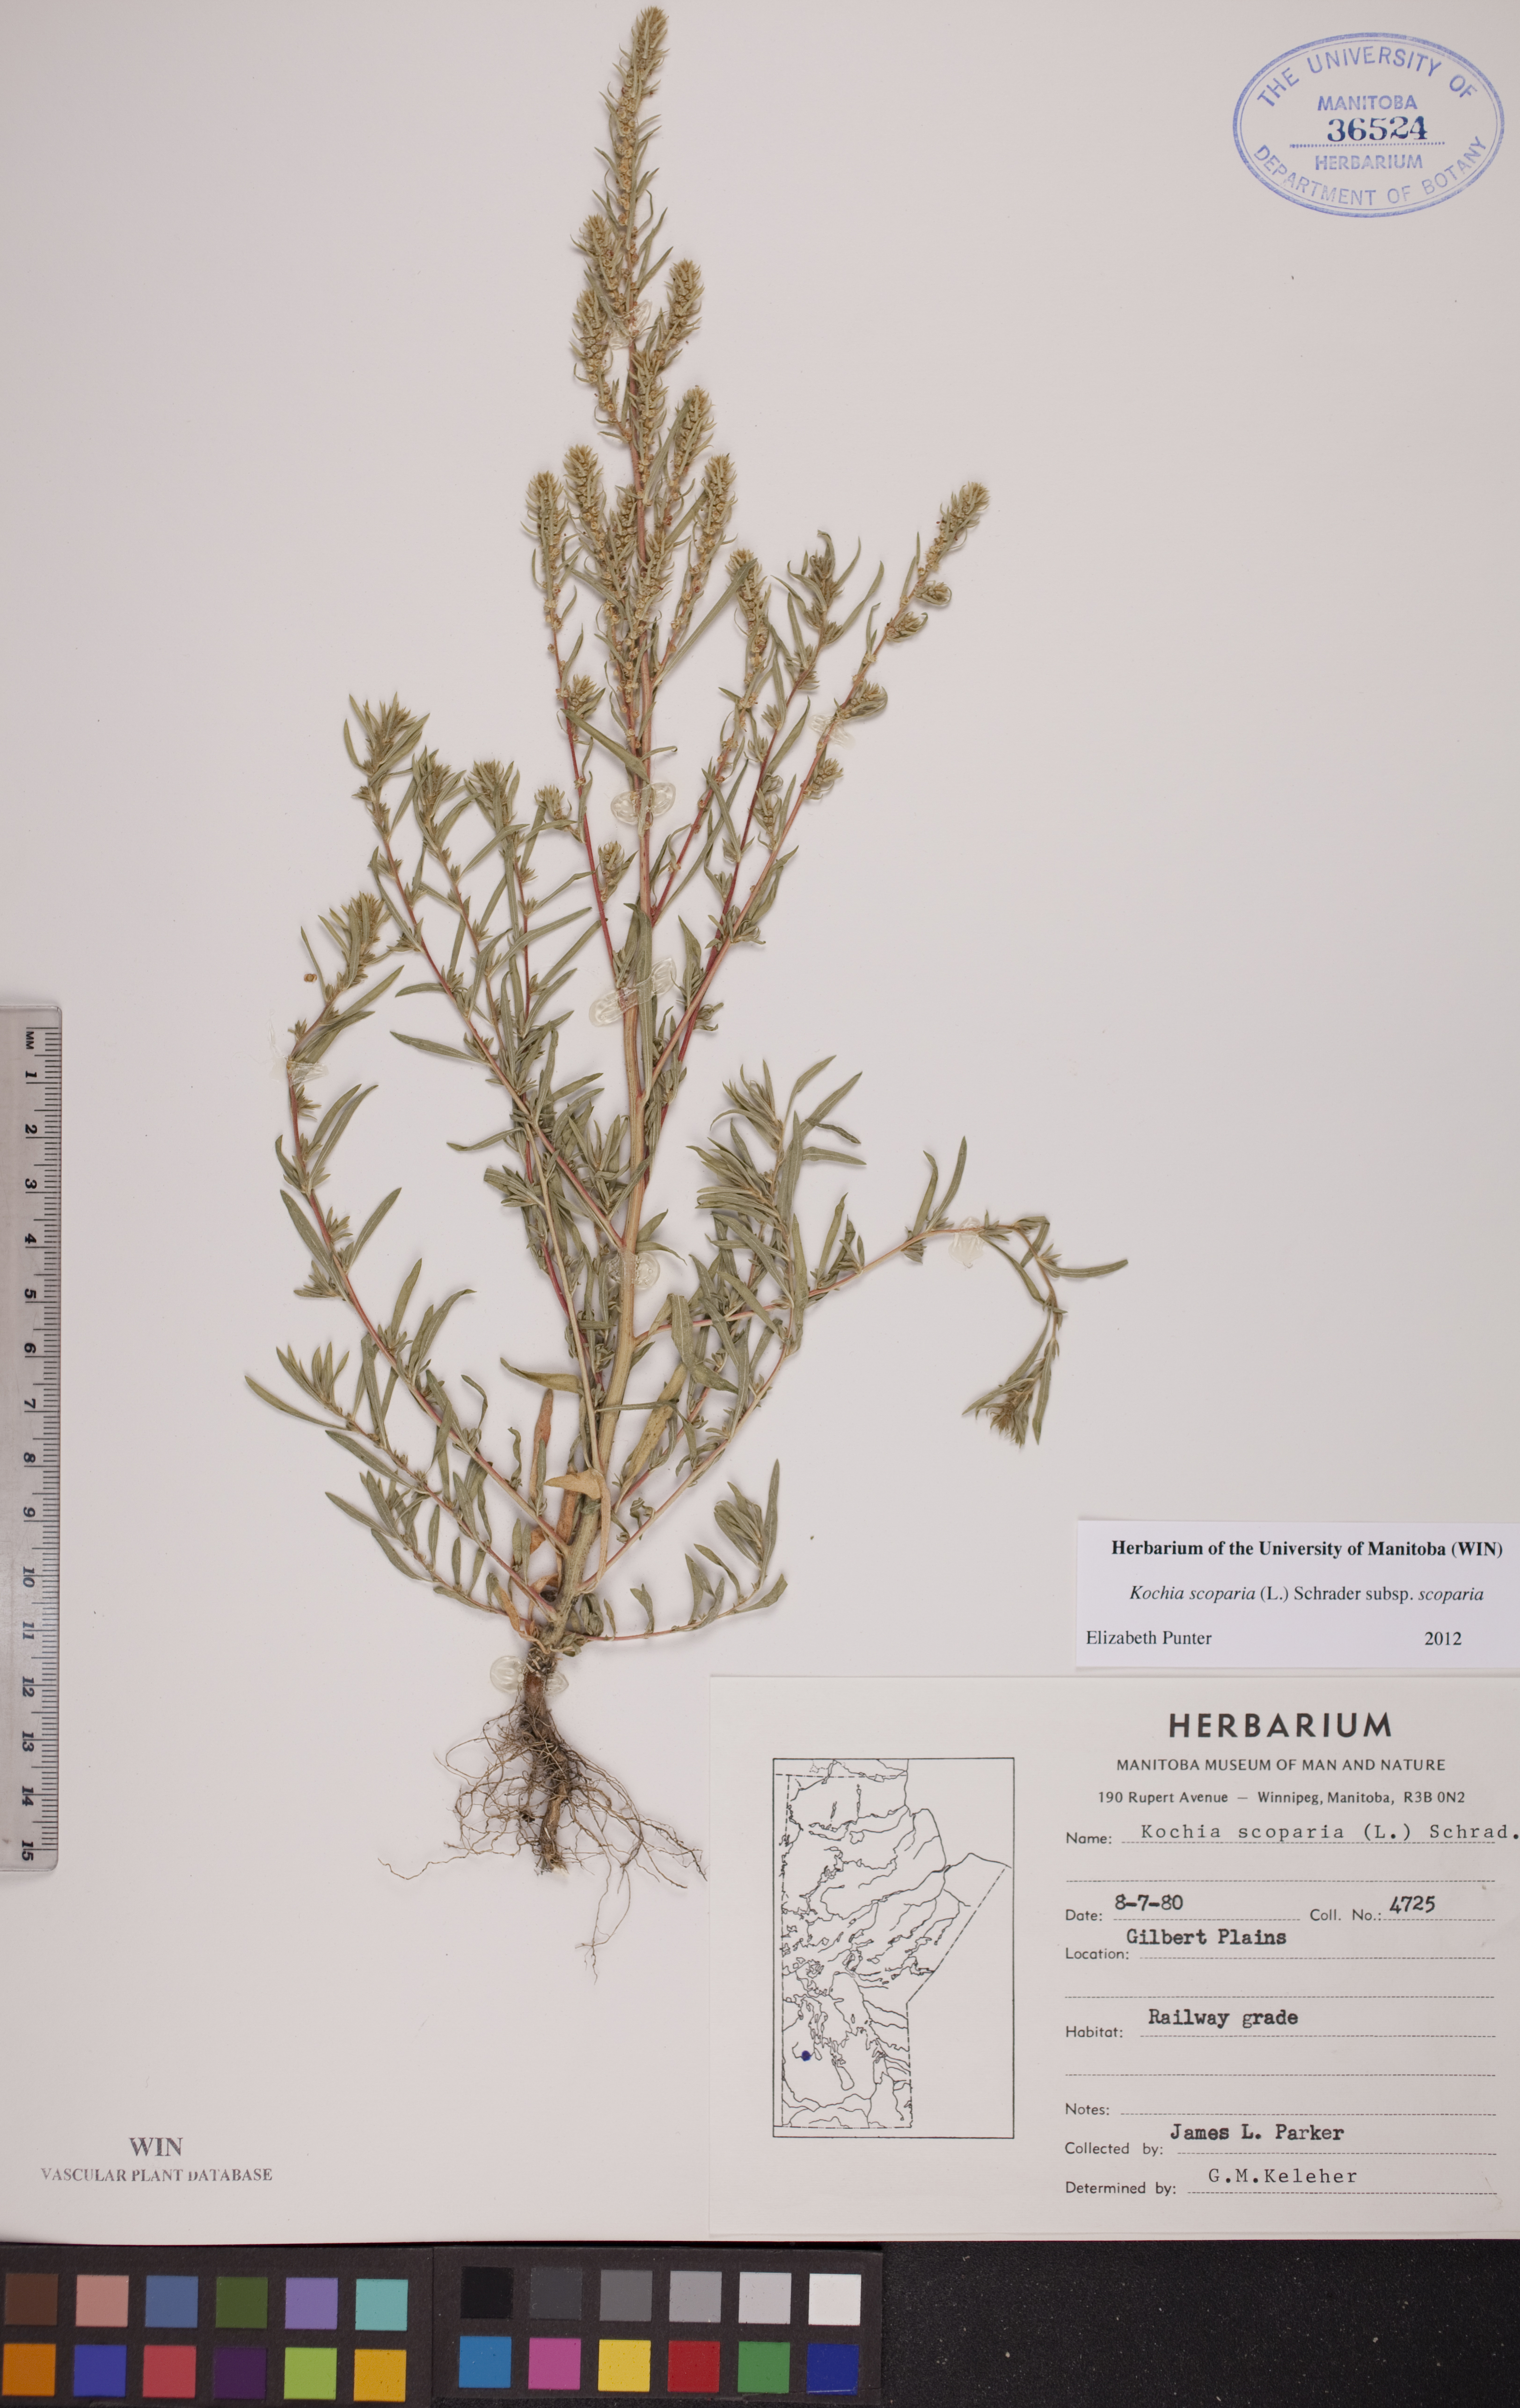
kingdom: Plantae
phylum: Tracheophyta
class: Magnoliopsida
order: Caryophyllales
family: Amaranthaceae
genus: Bassia
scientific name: Bassia scoparia
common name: Belvedere
